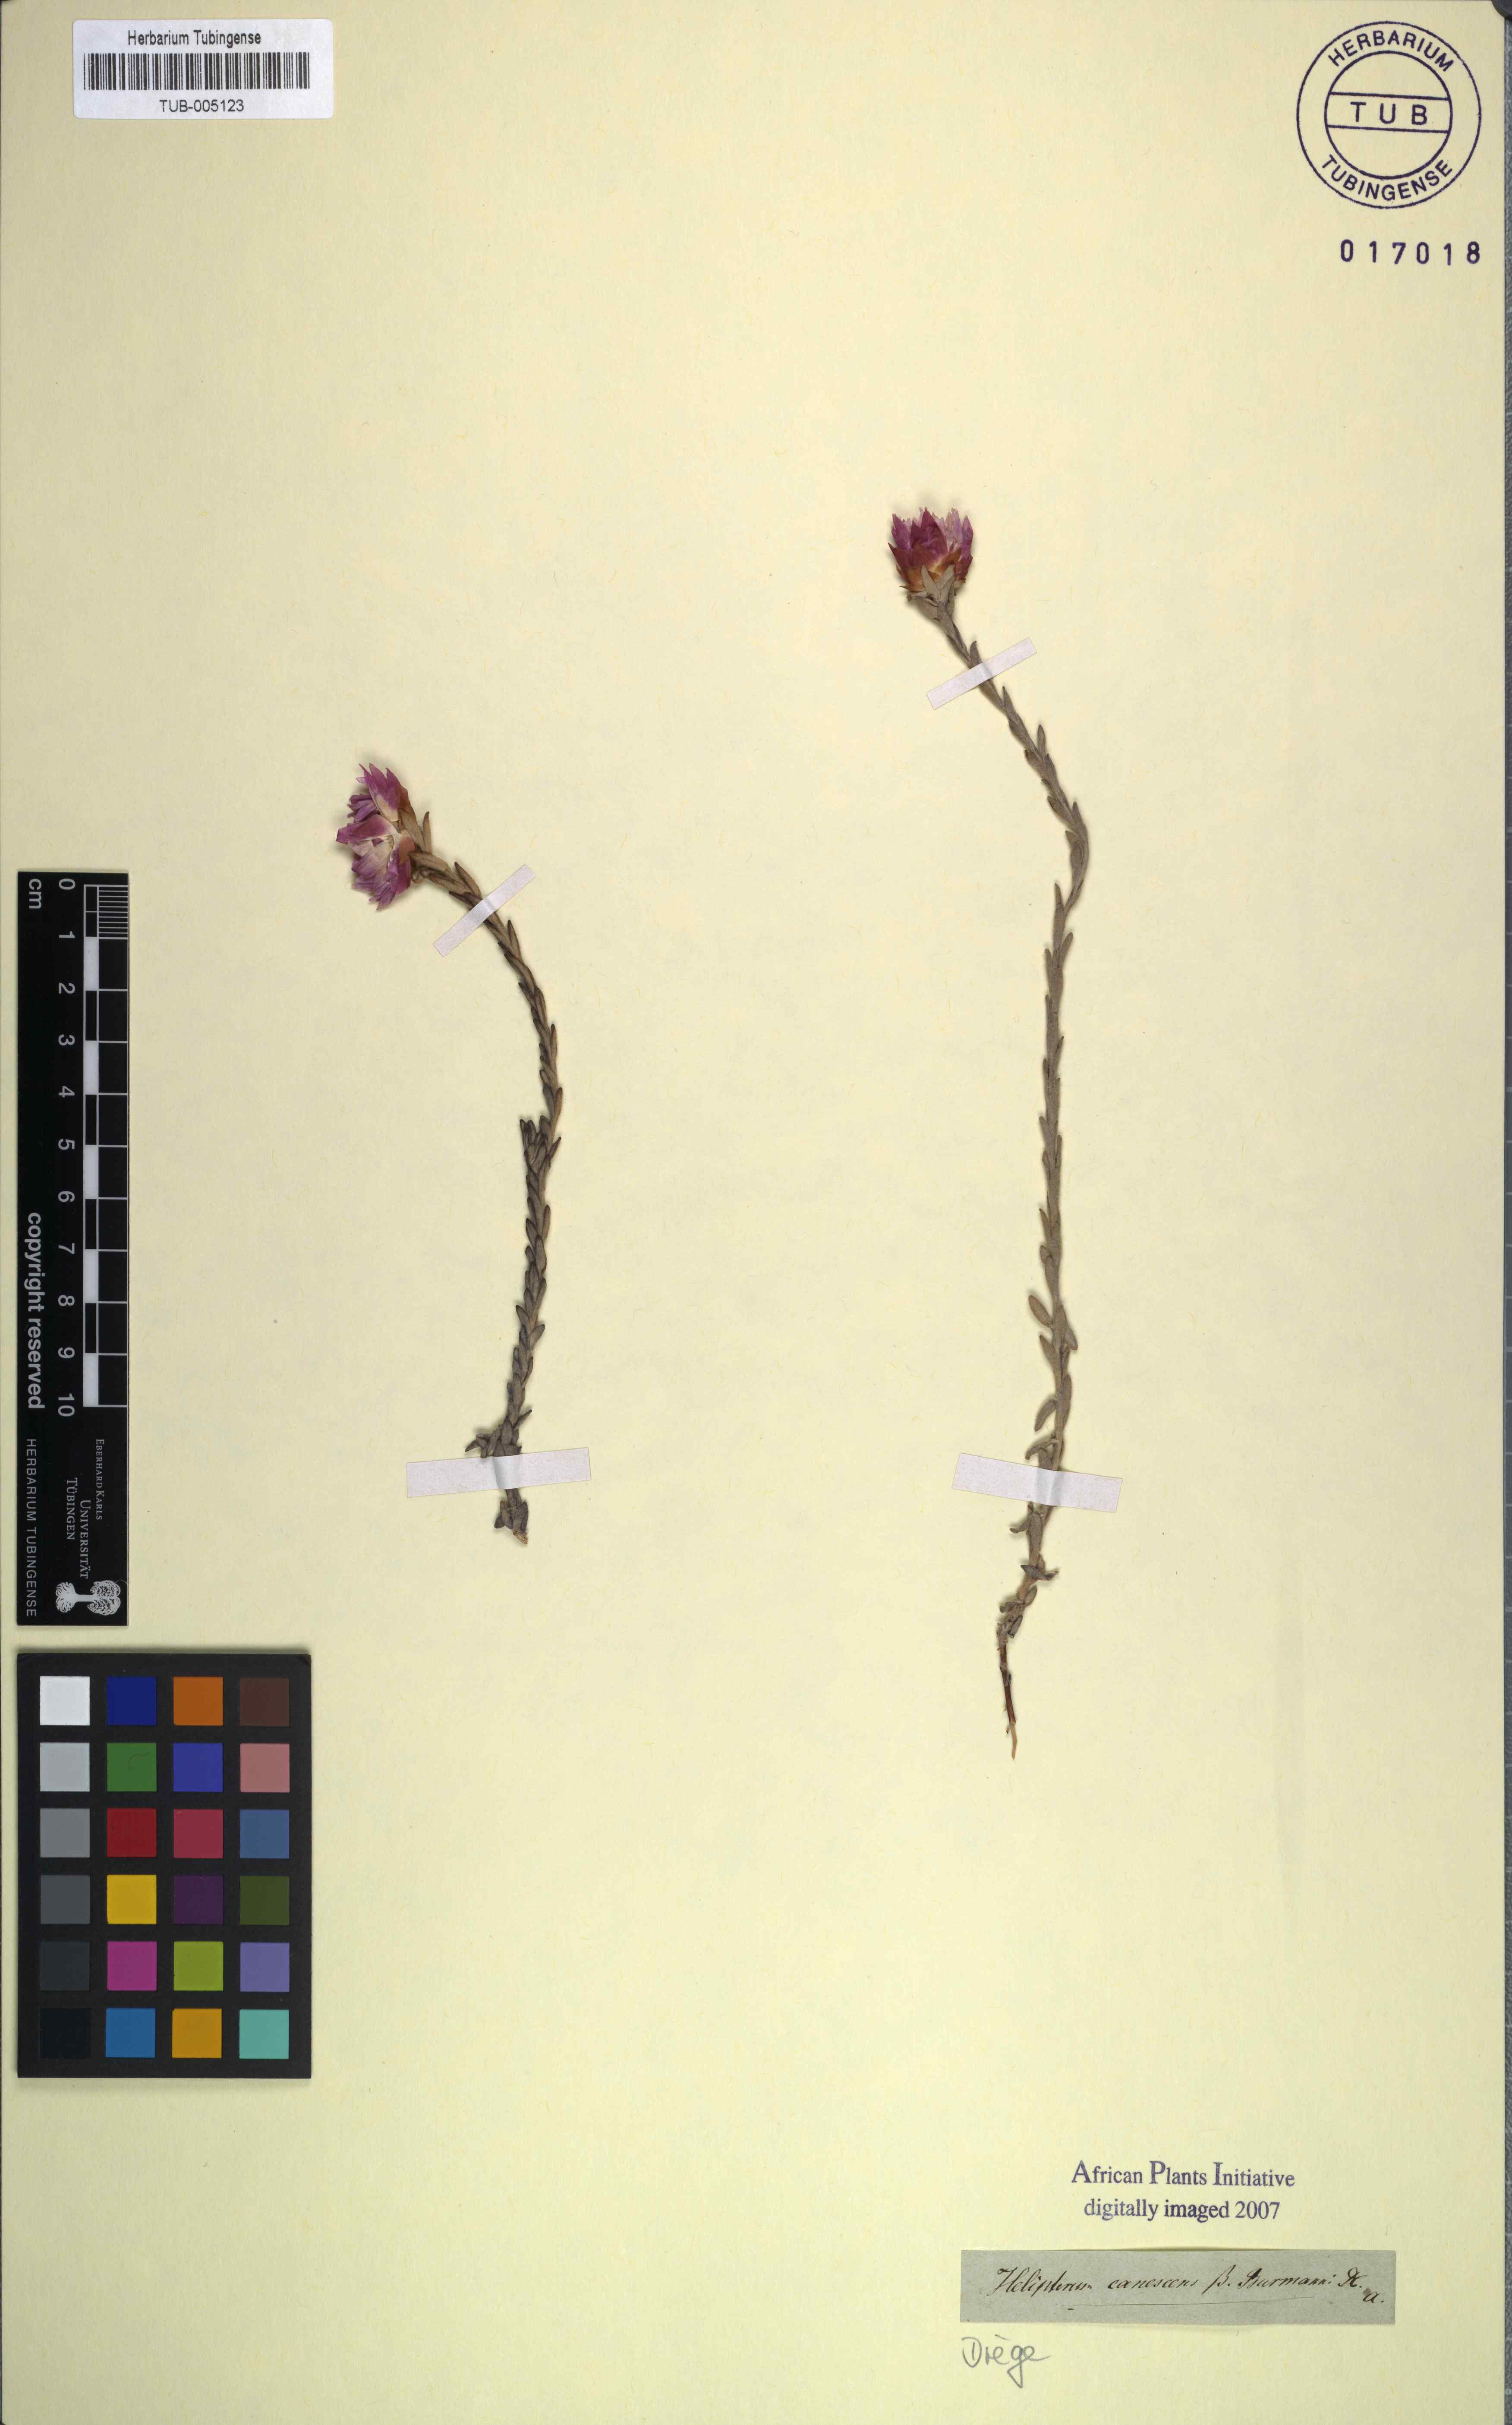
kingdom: Plantae
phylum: Tracheophyta
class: Magnoliopsida
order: Asterales
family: Asteraceae
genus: Syncarpha
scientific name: Syncarpha canescens
